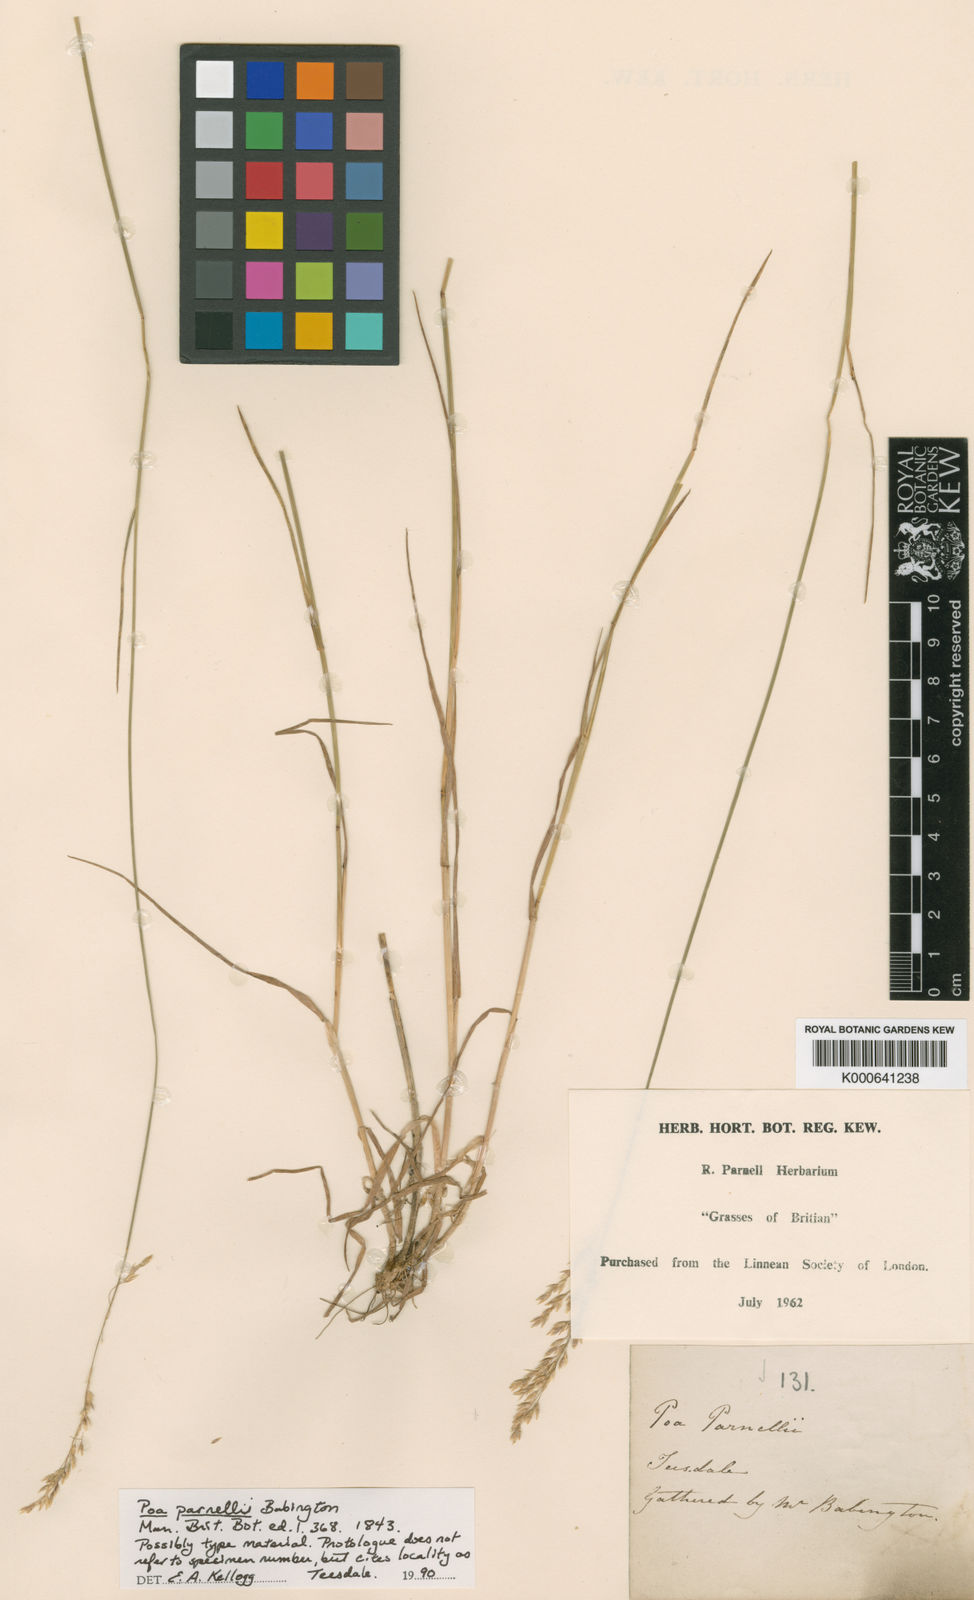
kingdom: Plantae
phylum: Tracheophyta
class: Liliopsida
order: Poales
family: Poaceae
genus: Poa
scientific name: Poa nemoralis
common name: Wood bluegrass
